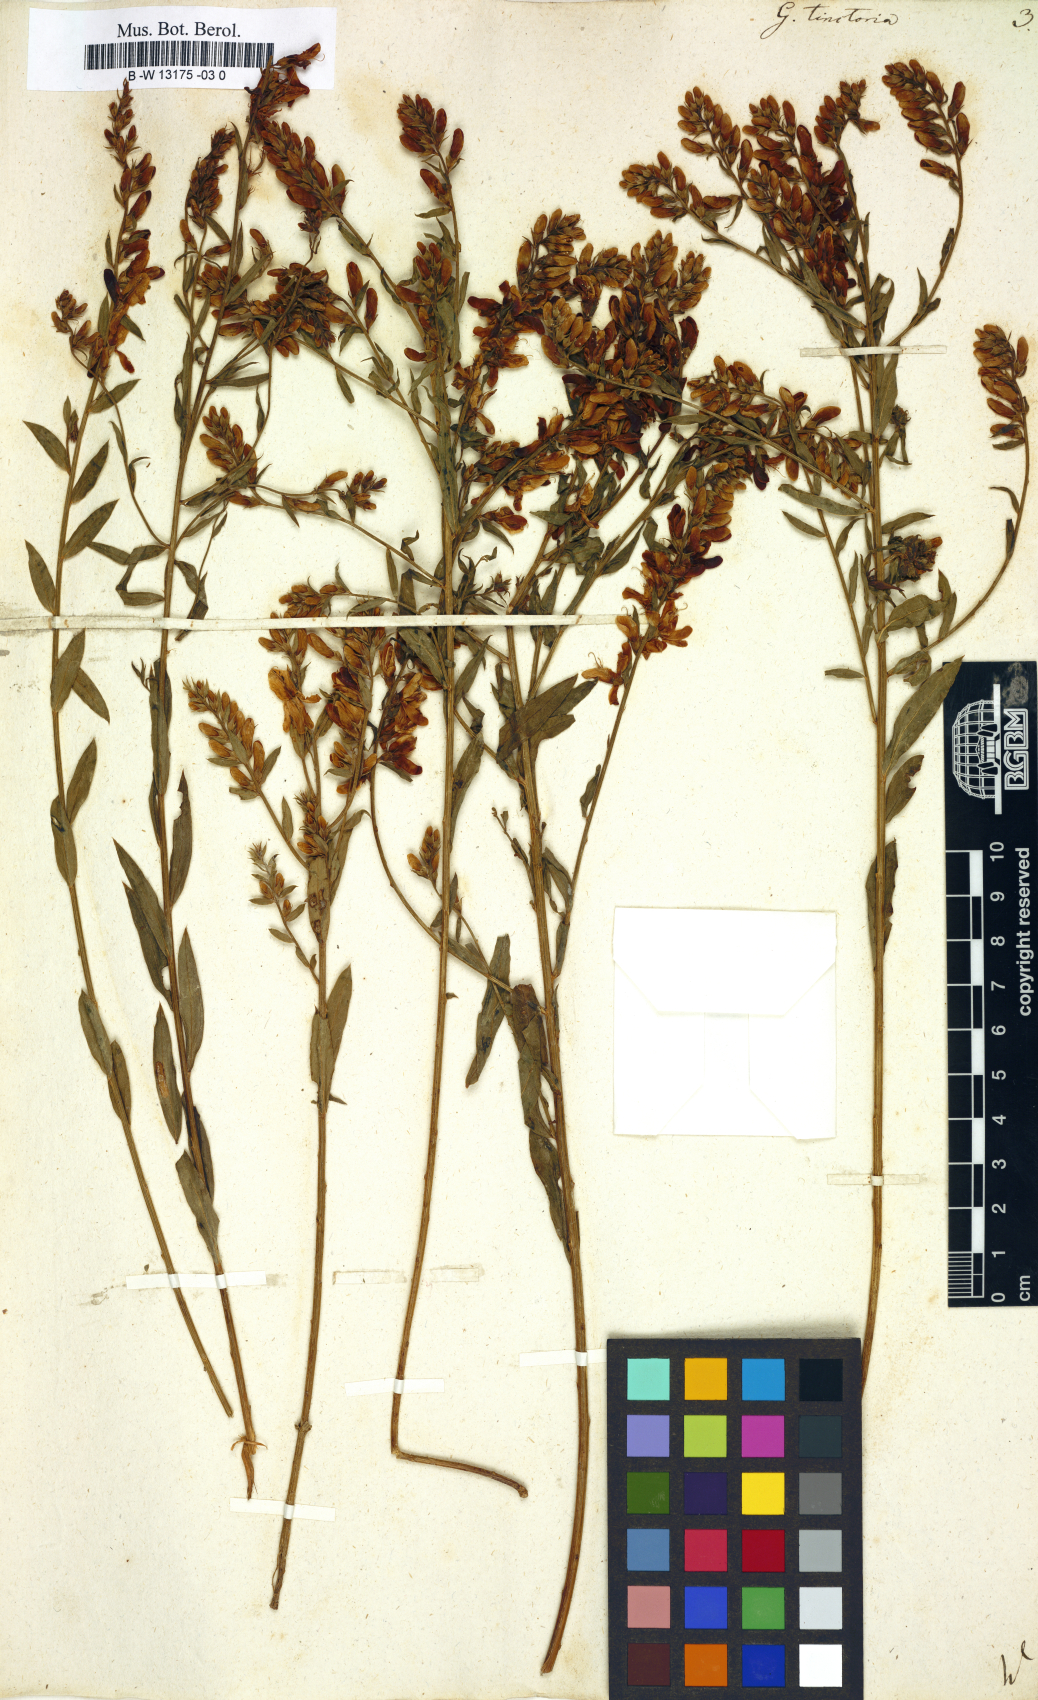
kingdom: Plantae
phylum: Tracheophyta
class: Magnoliopsida
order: Fabales
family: Fabaceae
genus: Genista
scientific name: Genista tinctoria
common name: Dyer's greenweed
